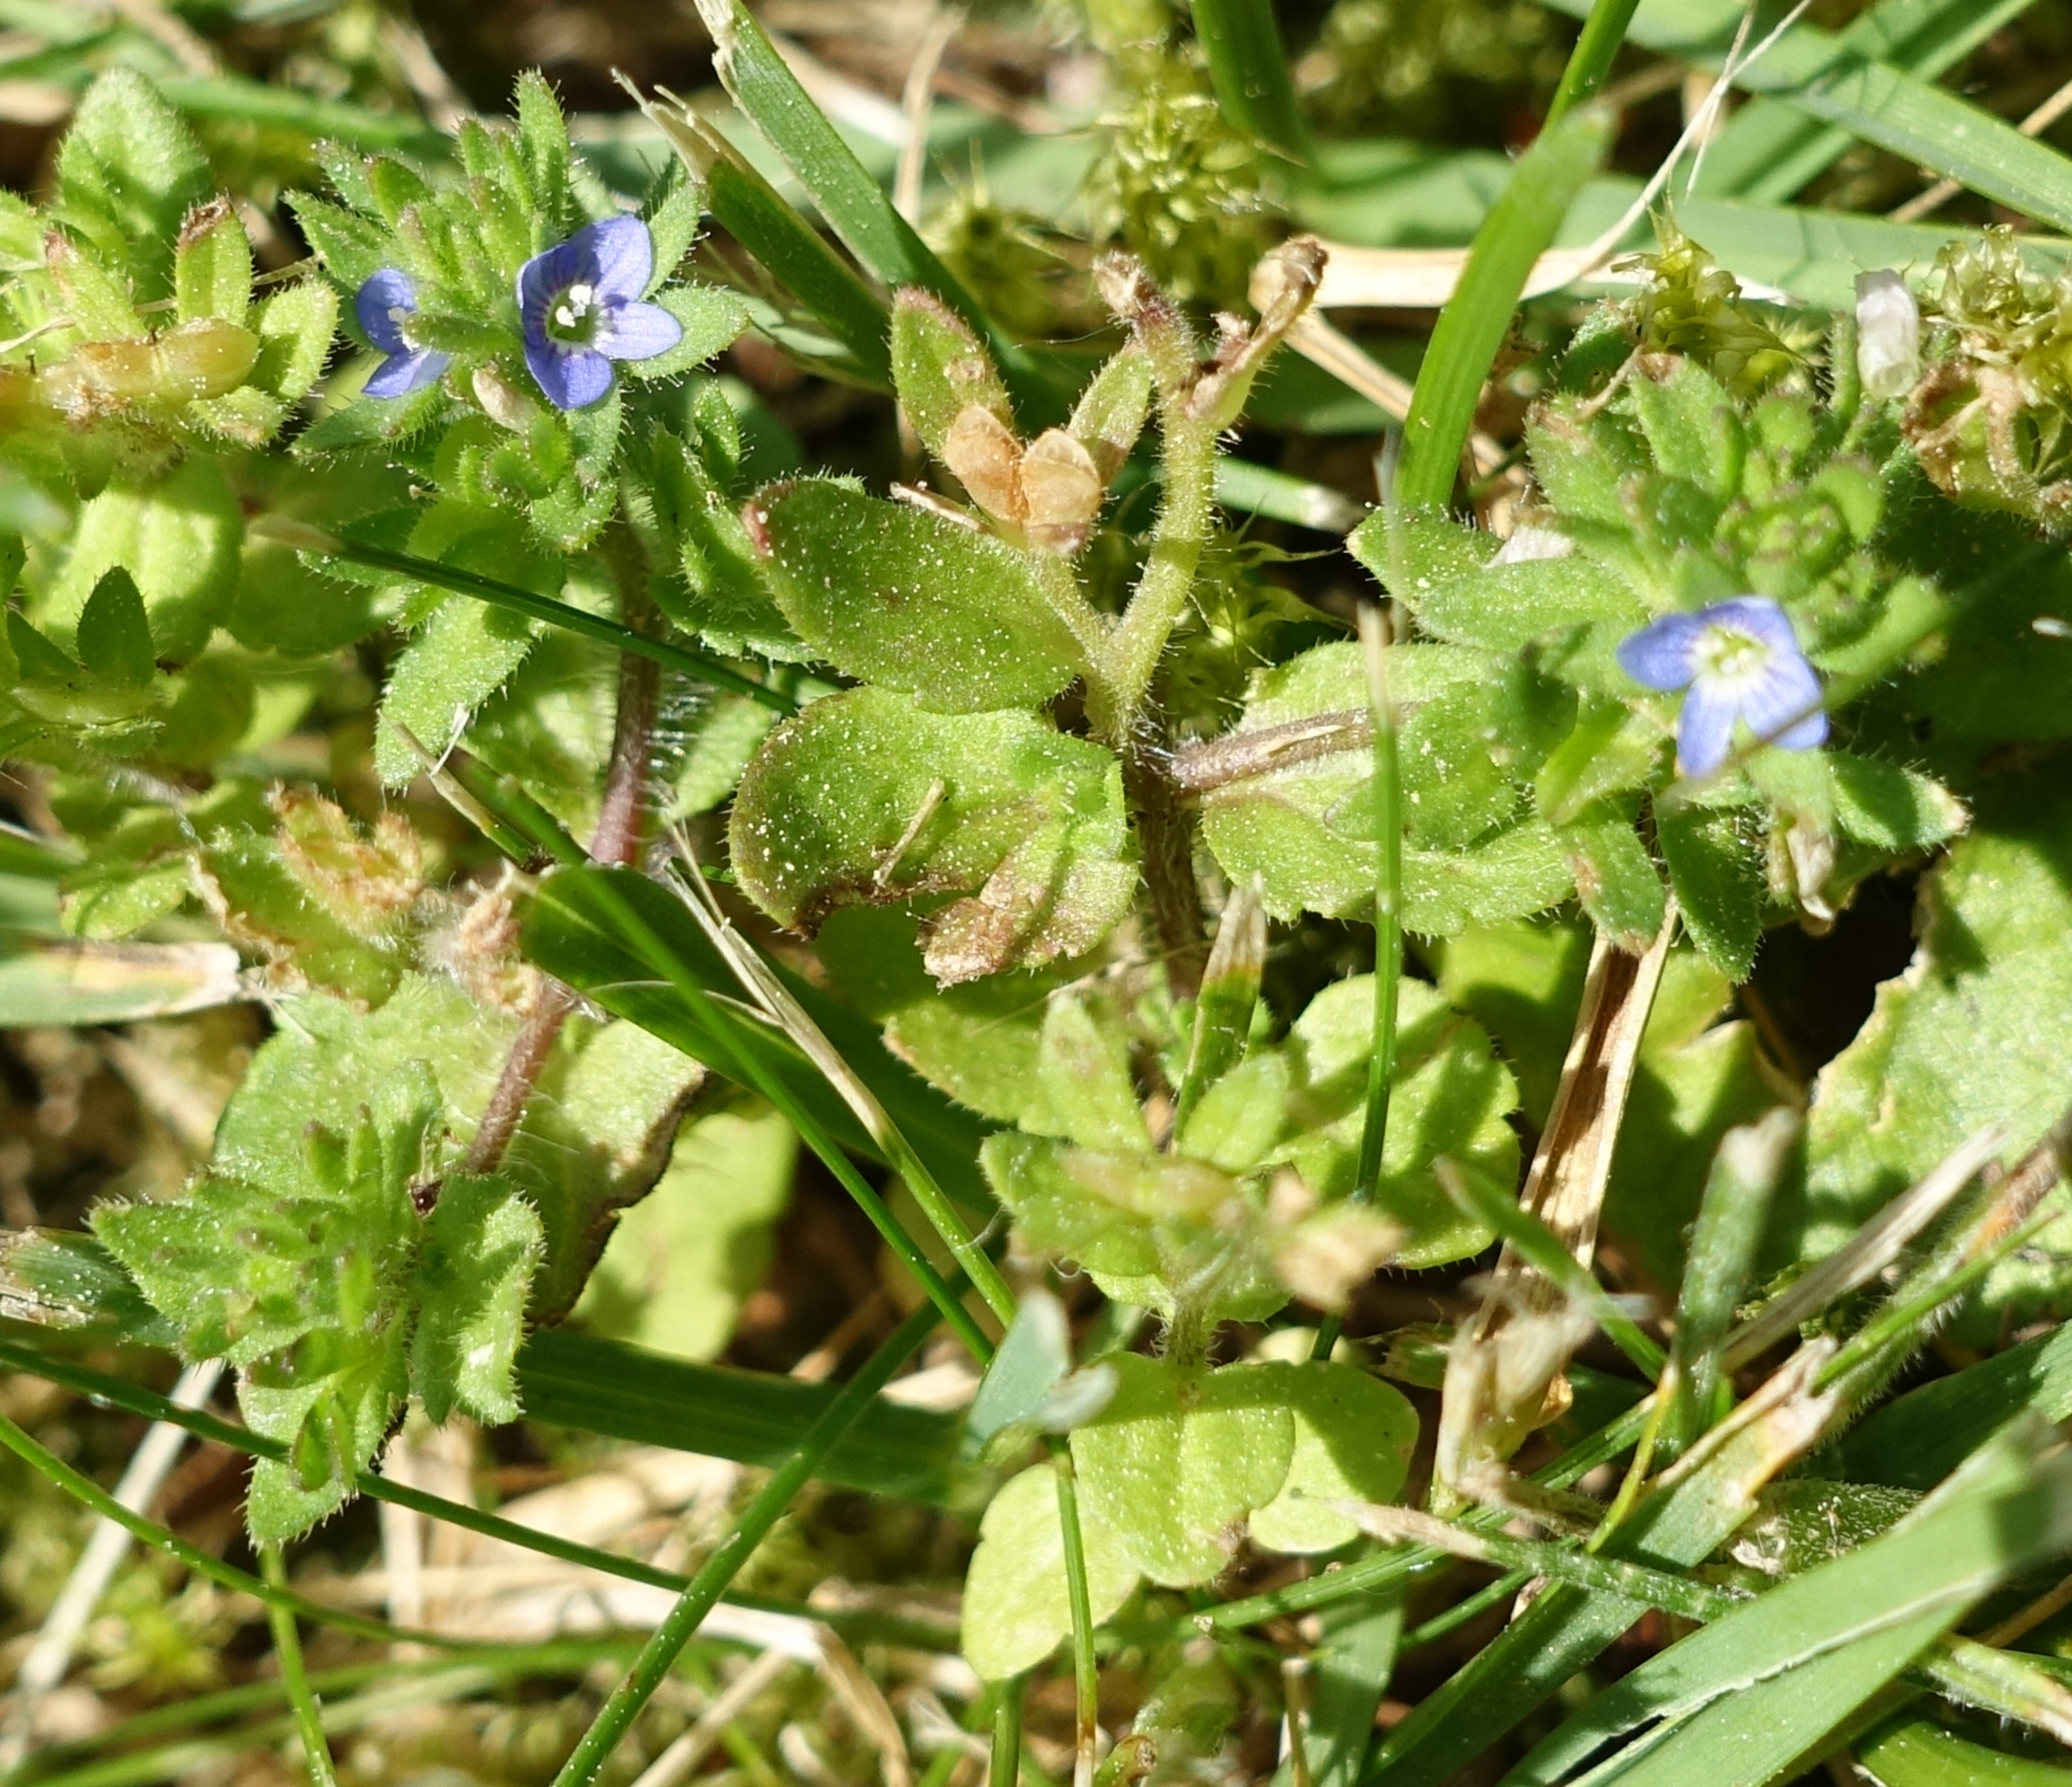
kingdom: Plantae
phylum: Tracheophyta
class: Magnoliopsida
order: Lamiales
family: Plantaginaceae
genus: Veronica
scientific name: Veronica arvensis
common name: Mark-ærenpris
